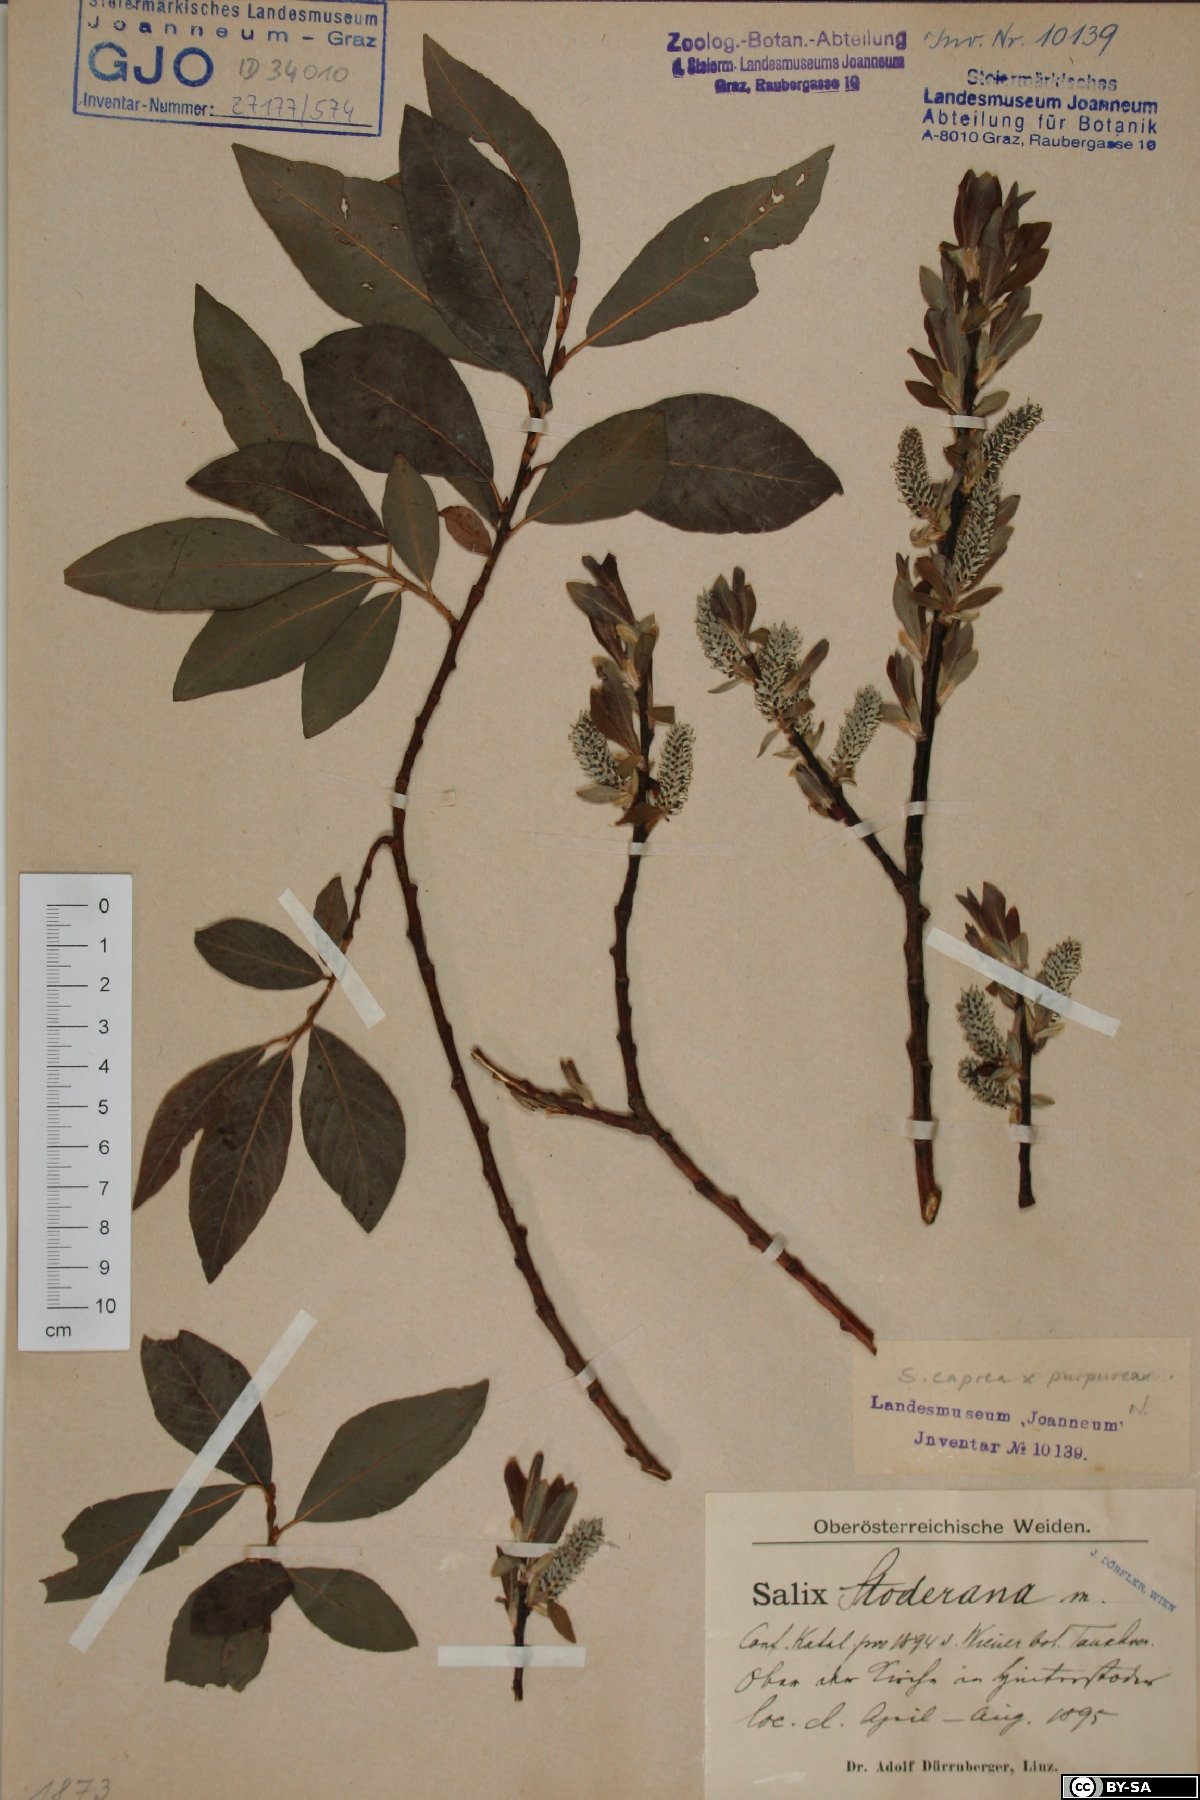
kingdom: Plantae
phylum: Tracheophyta
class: Magnoliopsida
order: Malpighiales
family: Salicaceae
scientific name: Salicaceae
